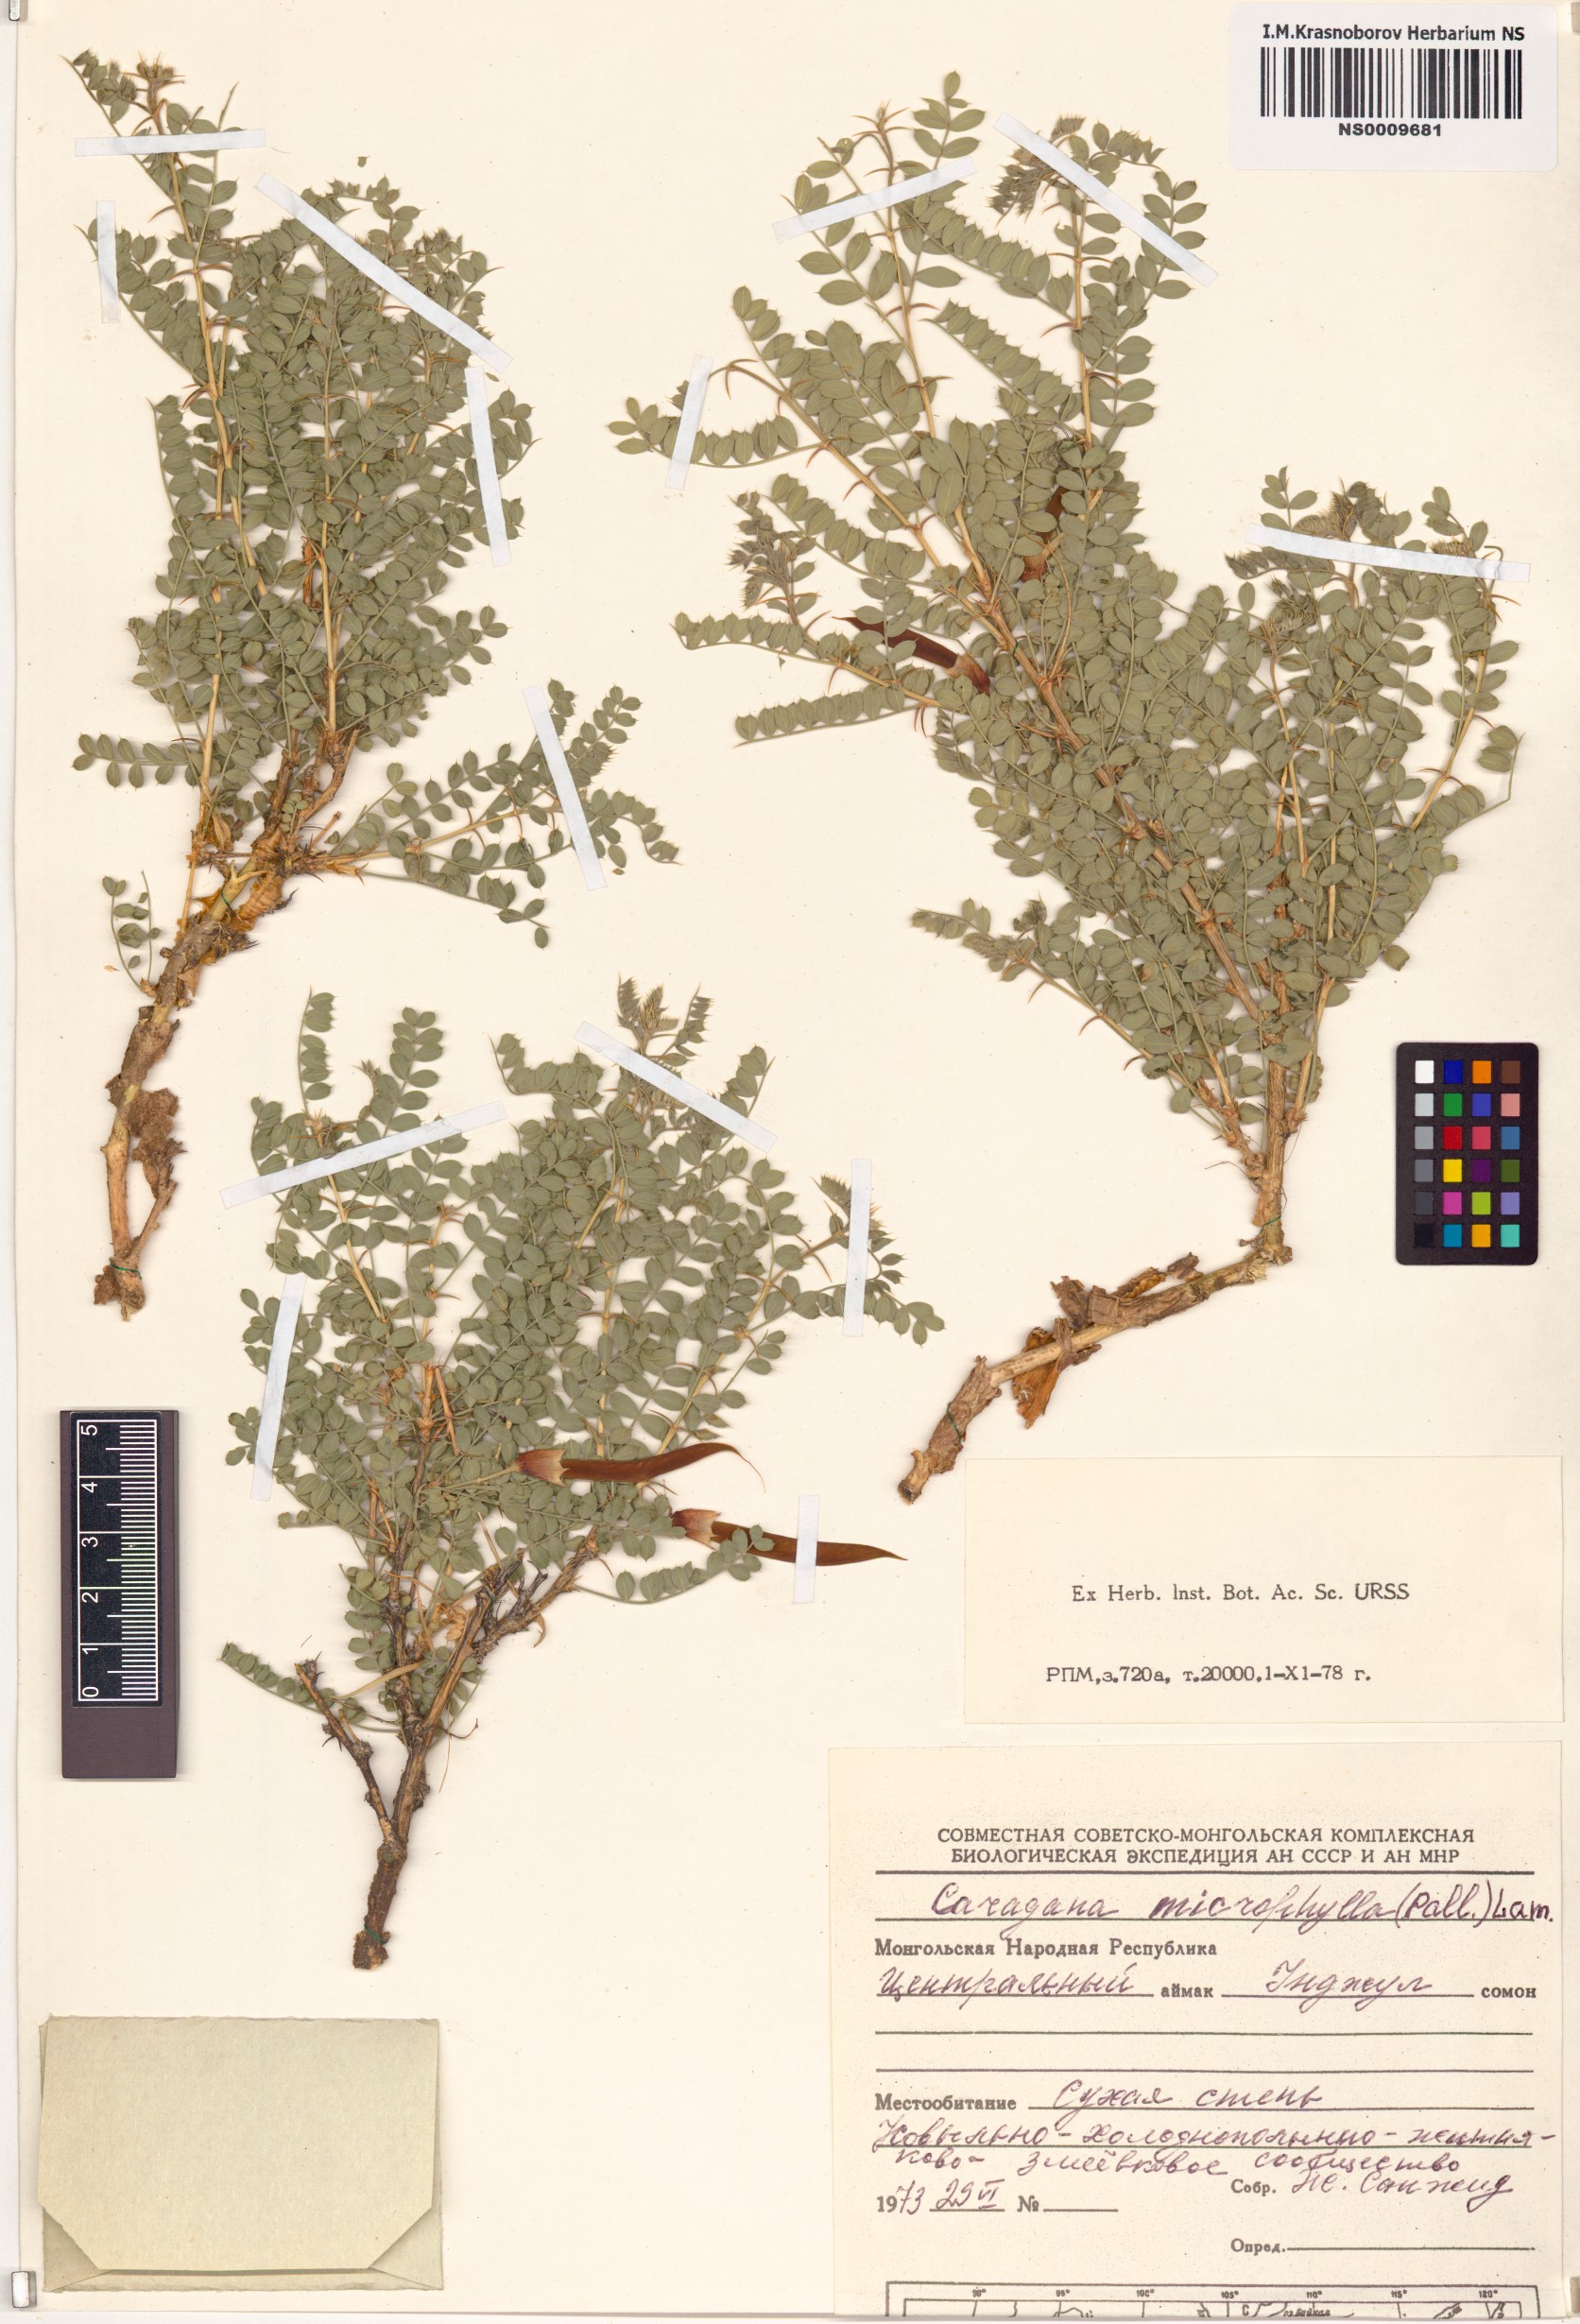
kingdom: Plantae
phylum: Tracheophyta
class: Magnoliopsida
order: Fabales
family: Fabaceae
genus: Caragana
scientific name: Caragana microphylla
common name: Littleleaf peashrub
